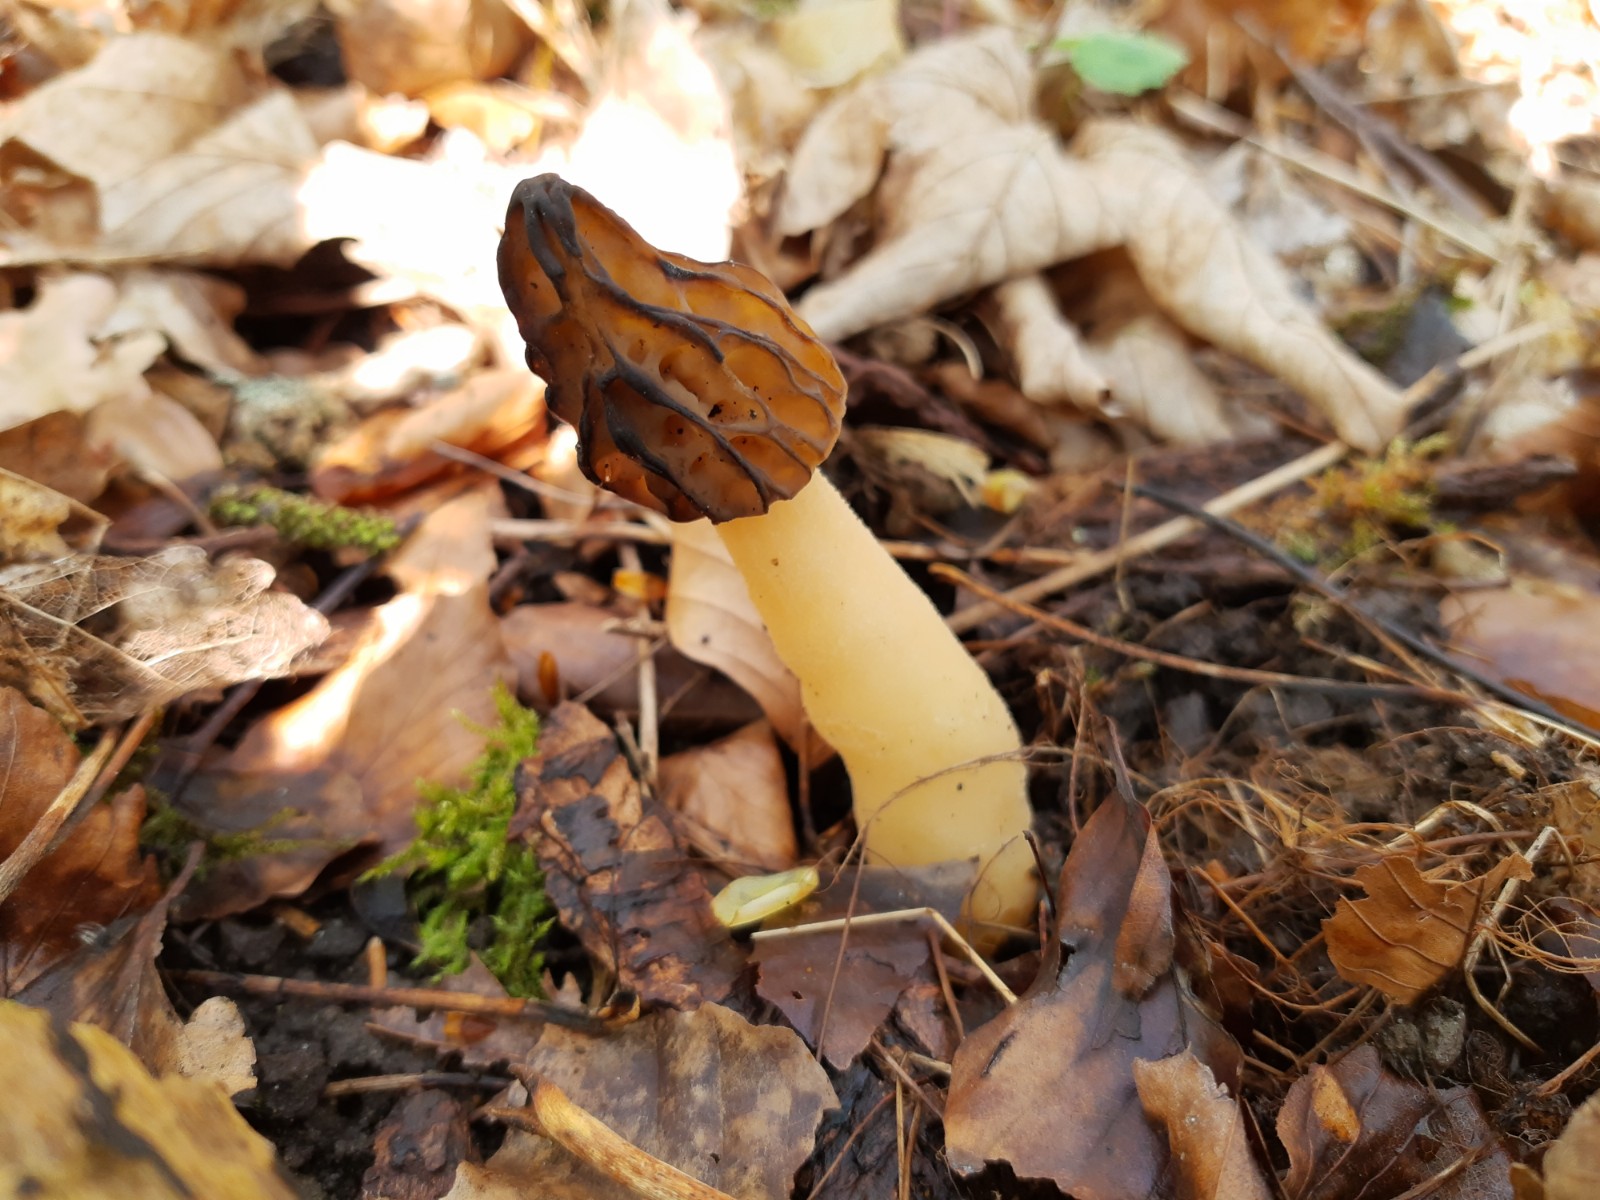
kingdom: Fungi
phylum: Ascomycota
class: Pezizomycetes
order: Pezizales
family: Morchellaceae
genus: Morchella
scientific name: Morchella semilibera
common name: hætte-morkel
